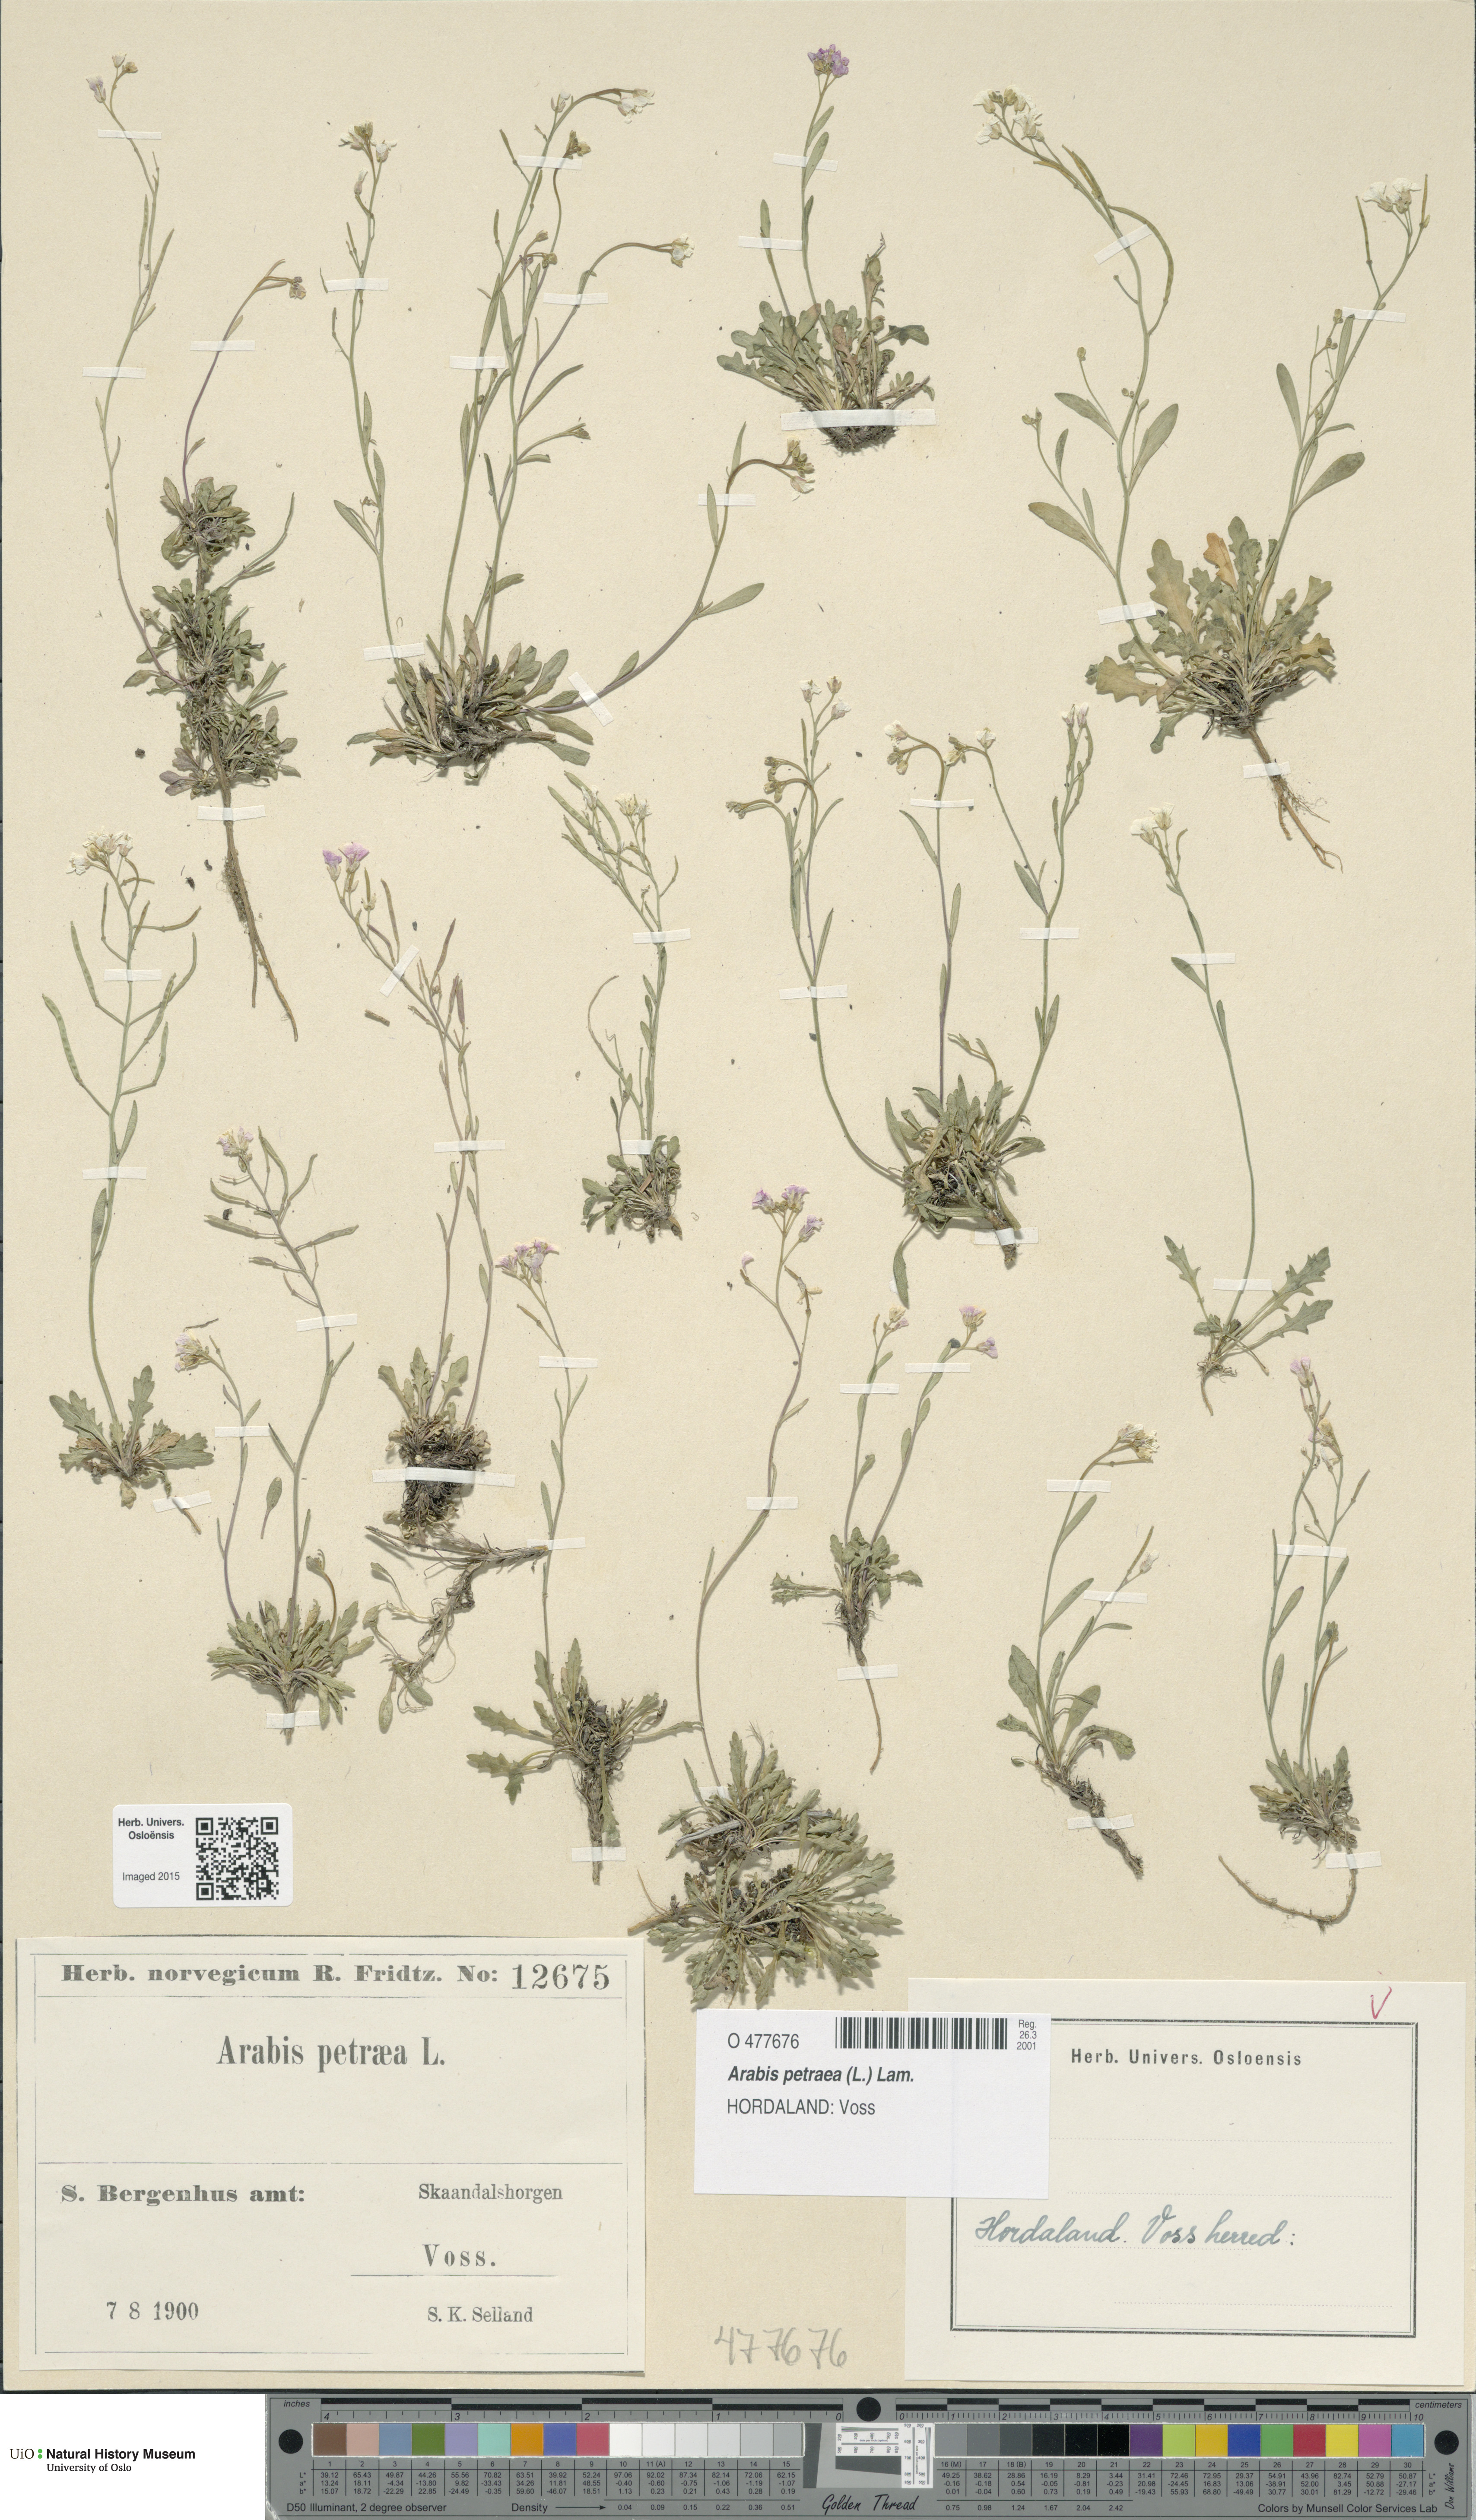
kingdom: Plantae
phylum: Tracheophyta
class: Magnoliopsida
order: Brassicales
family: Brassicaceae
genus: Arabidopsis
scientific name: Arabidopsis petraea
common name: Northern rock-cress
